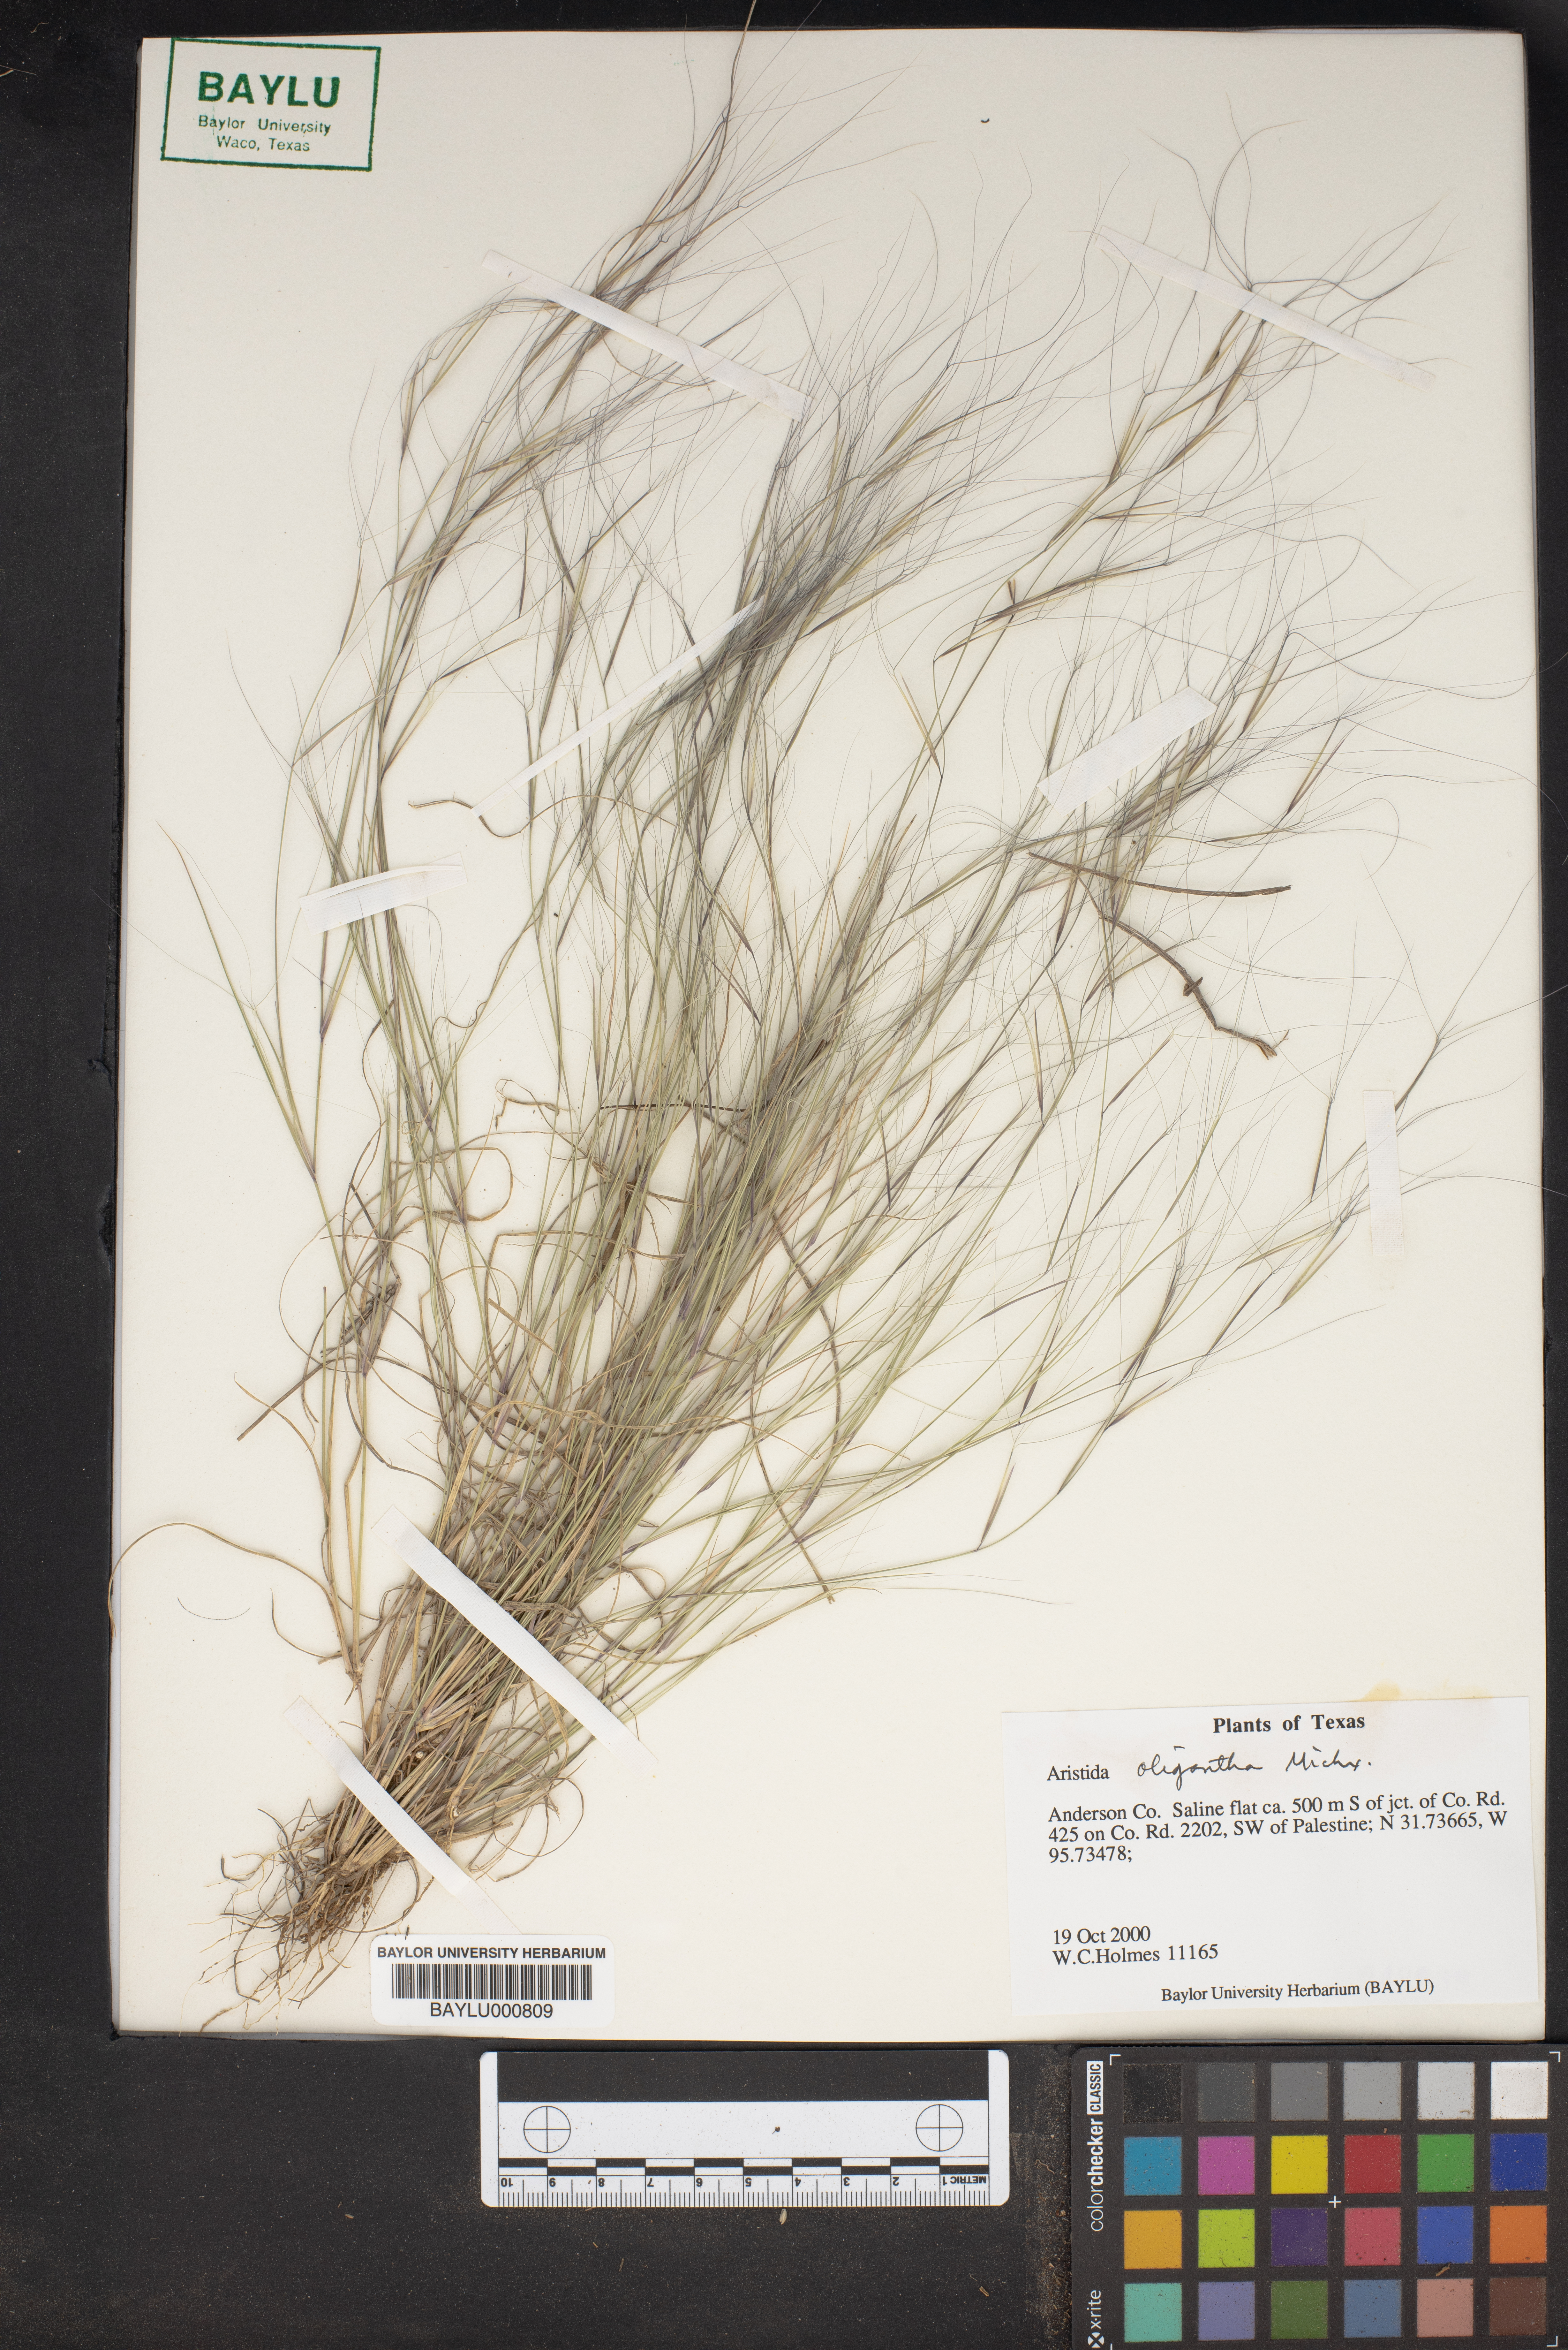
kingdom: Plantae
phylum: Tracheophyta
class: Liliopsida
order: Poales
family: Poaceae
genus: Aristida
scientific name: Aristida oligantha
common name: Few-flowered aristida
